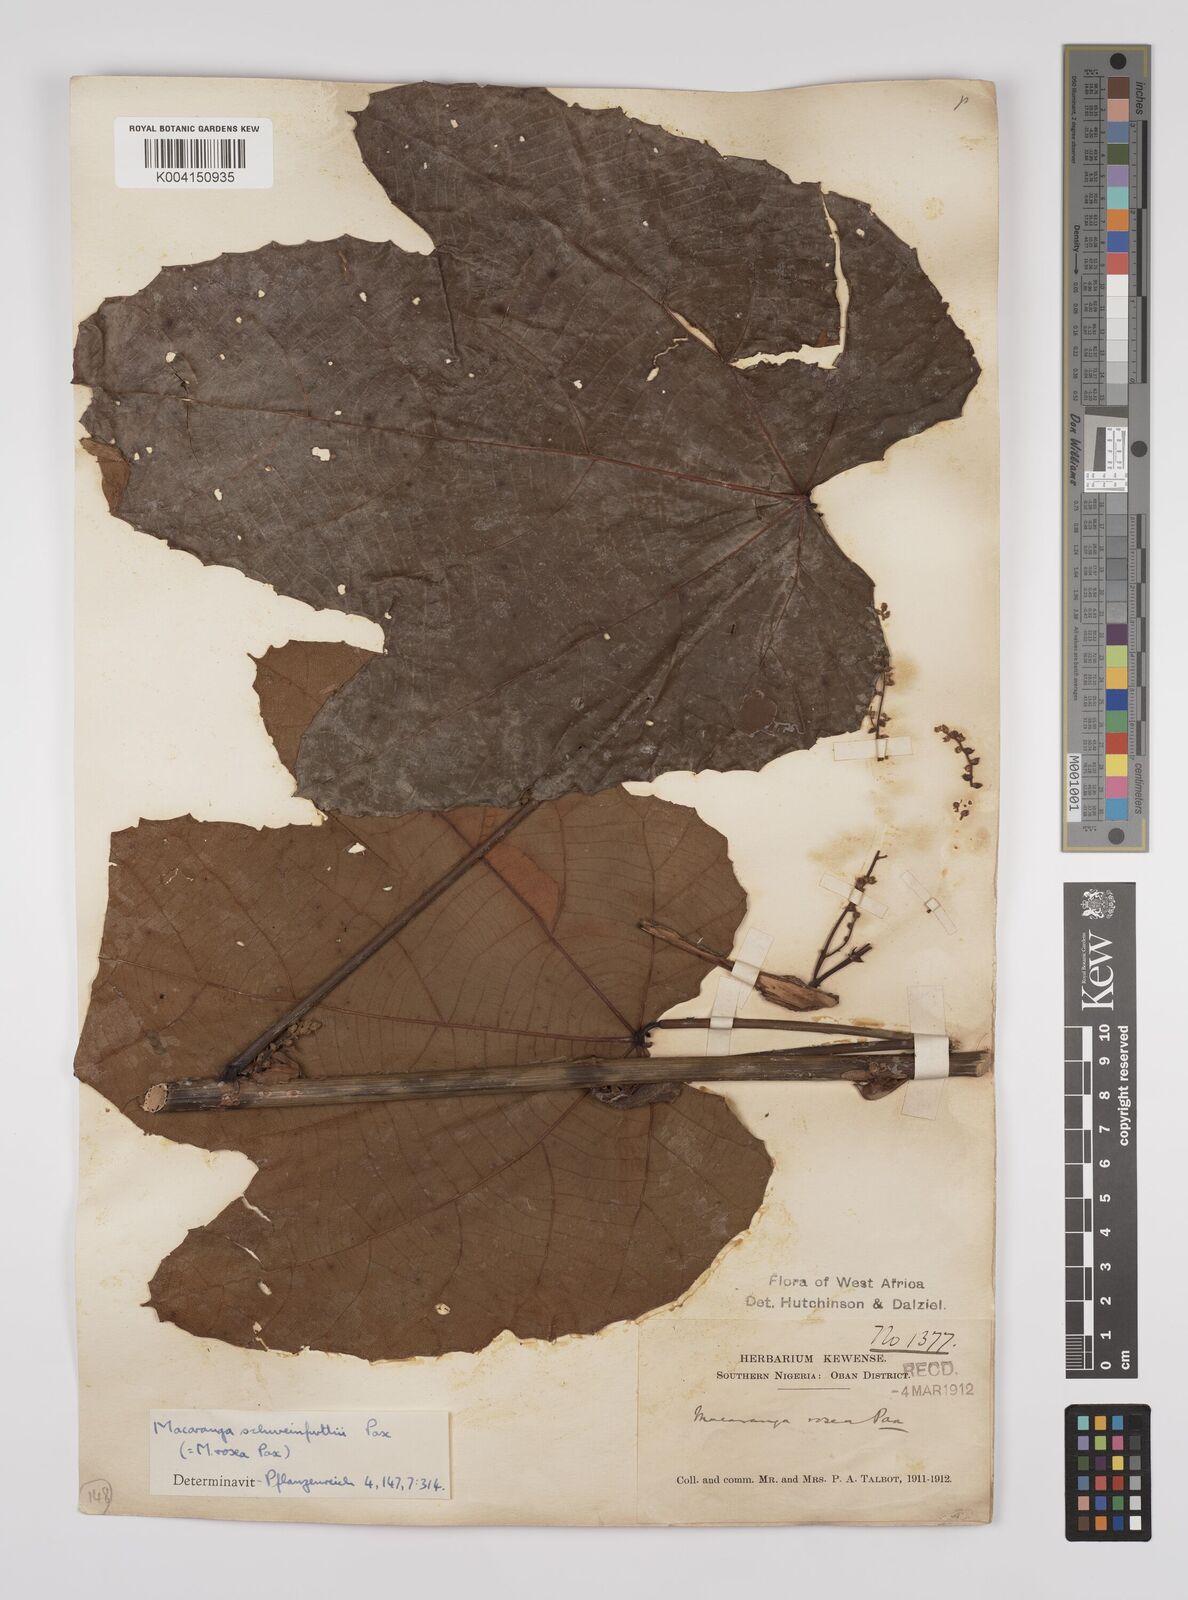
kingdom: Plantae
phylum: Tracheophyta
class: Magnoliopsida
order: Malpighiales
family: Euphorbiaceae
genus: Macaranga
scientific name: Macaranga schweinfurthii
